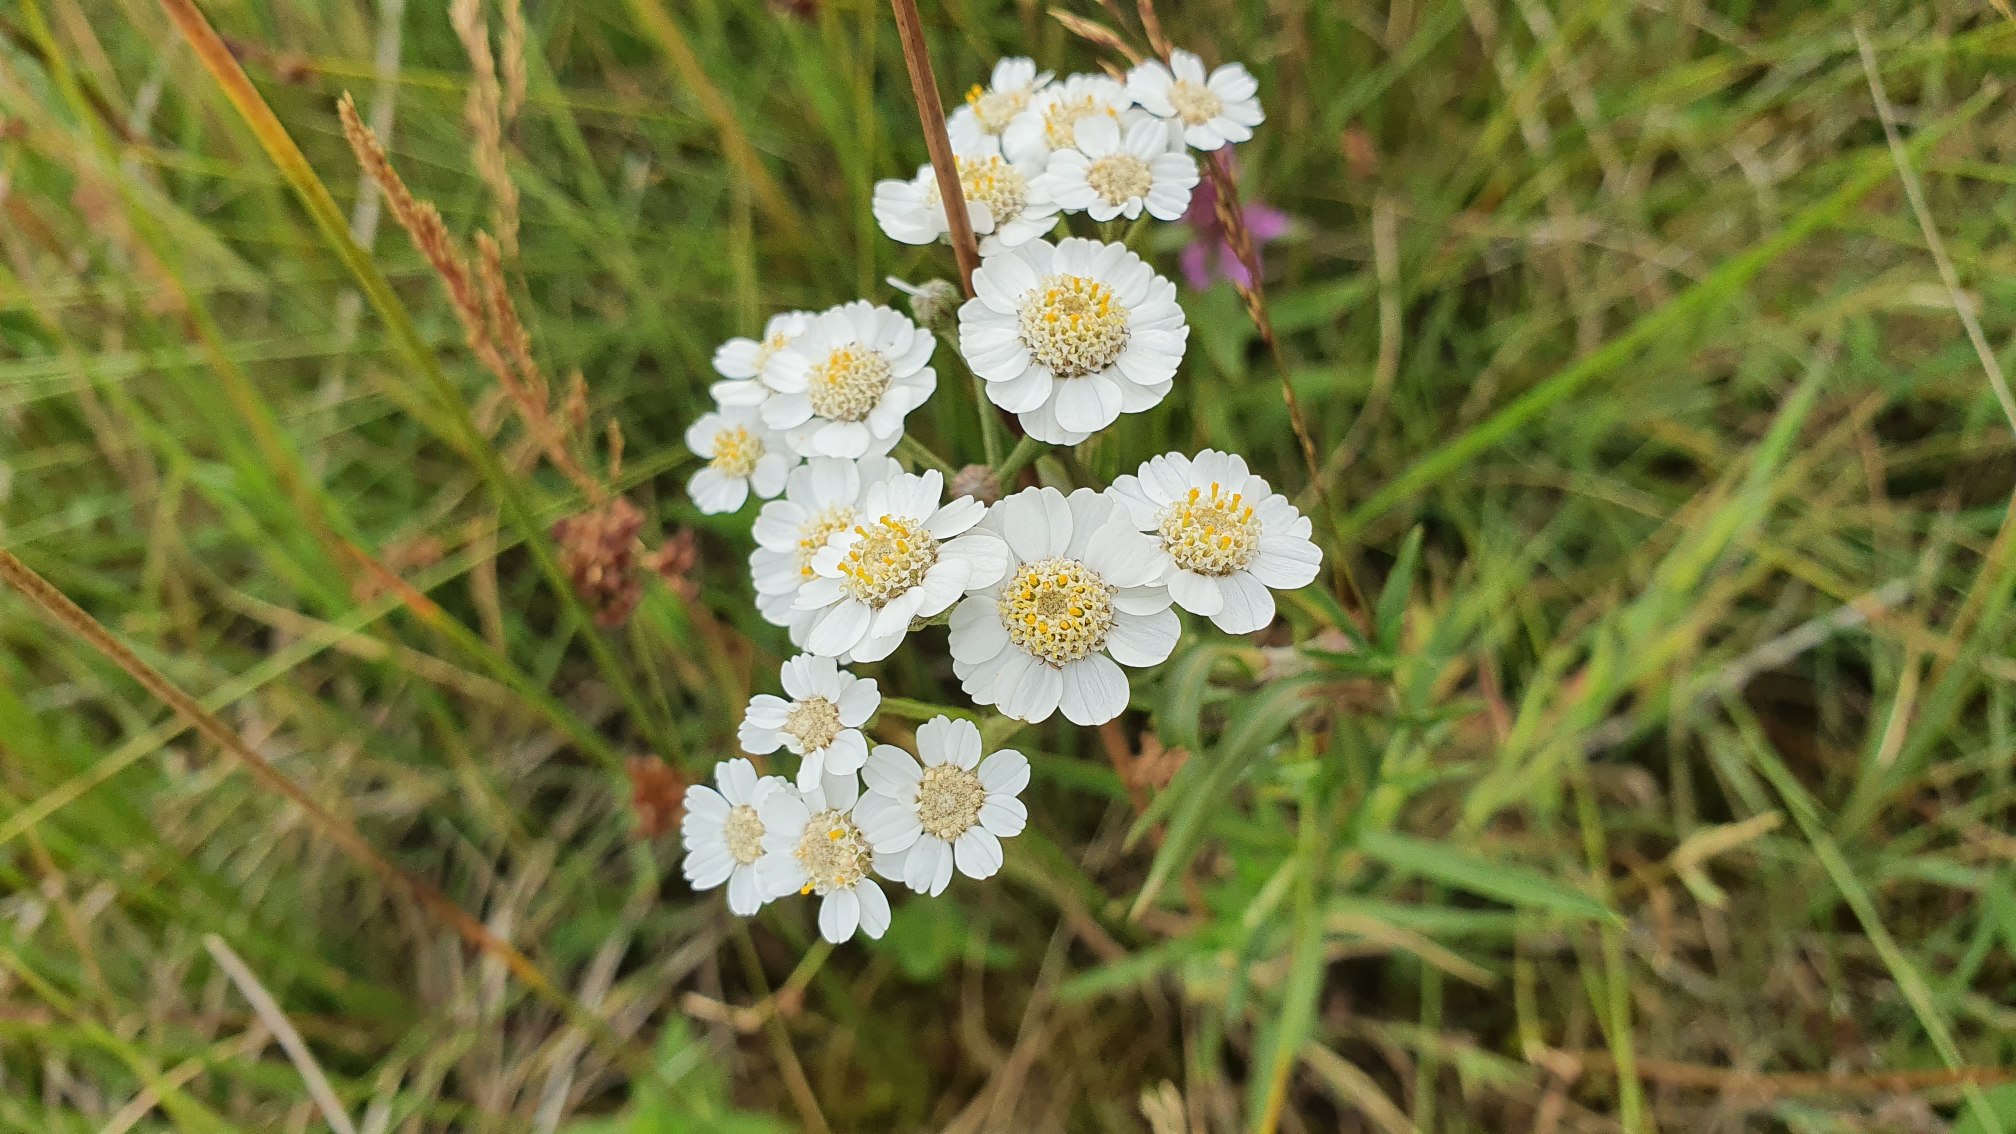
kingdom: Plantae
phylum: Tracheophyta
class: Magnoliopsida
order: Asterales
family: Asteraceae
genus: Achillea
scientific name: Achillea ptarmica
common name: Nyse-røllike
